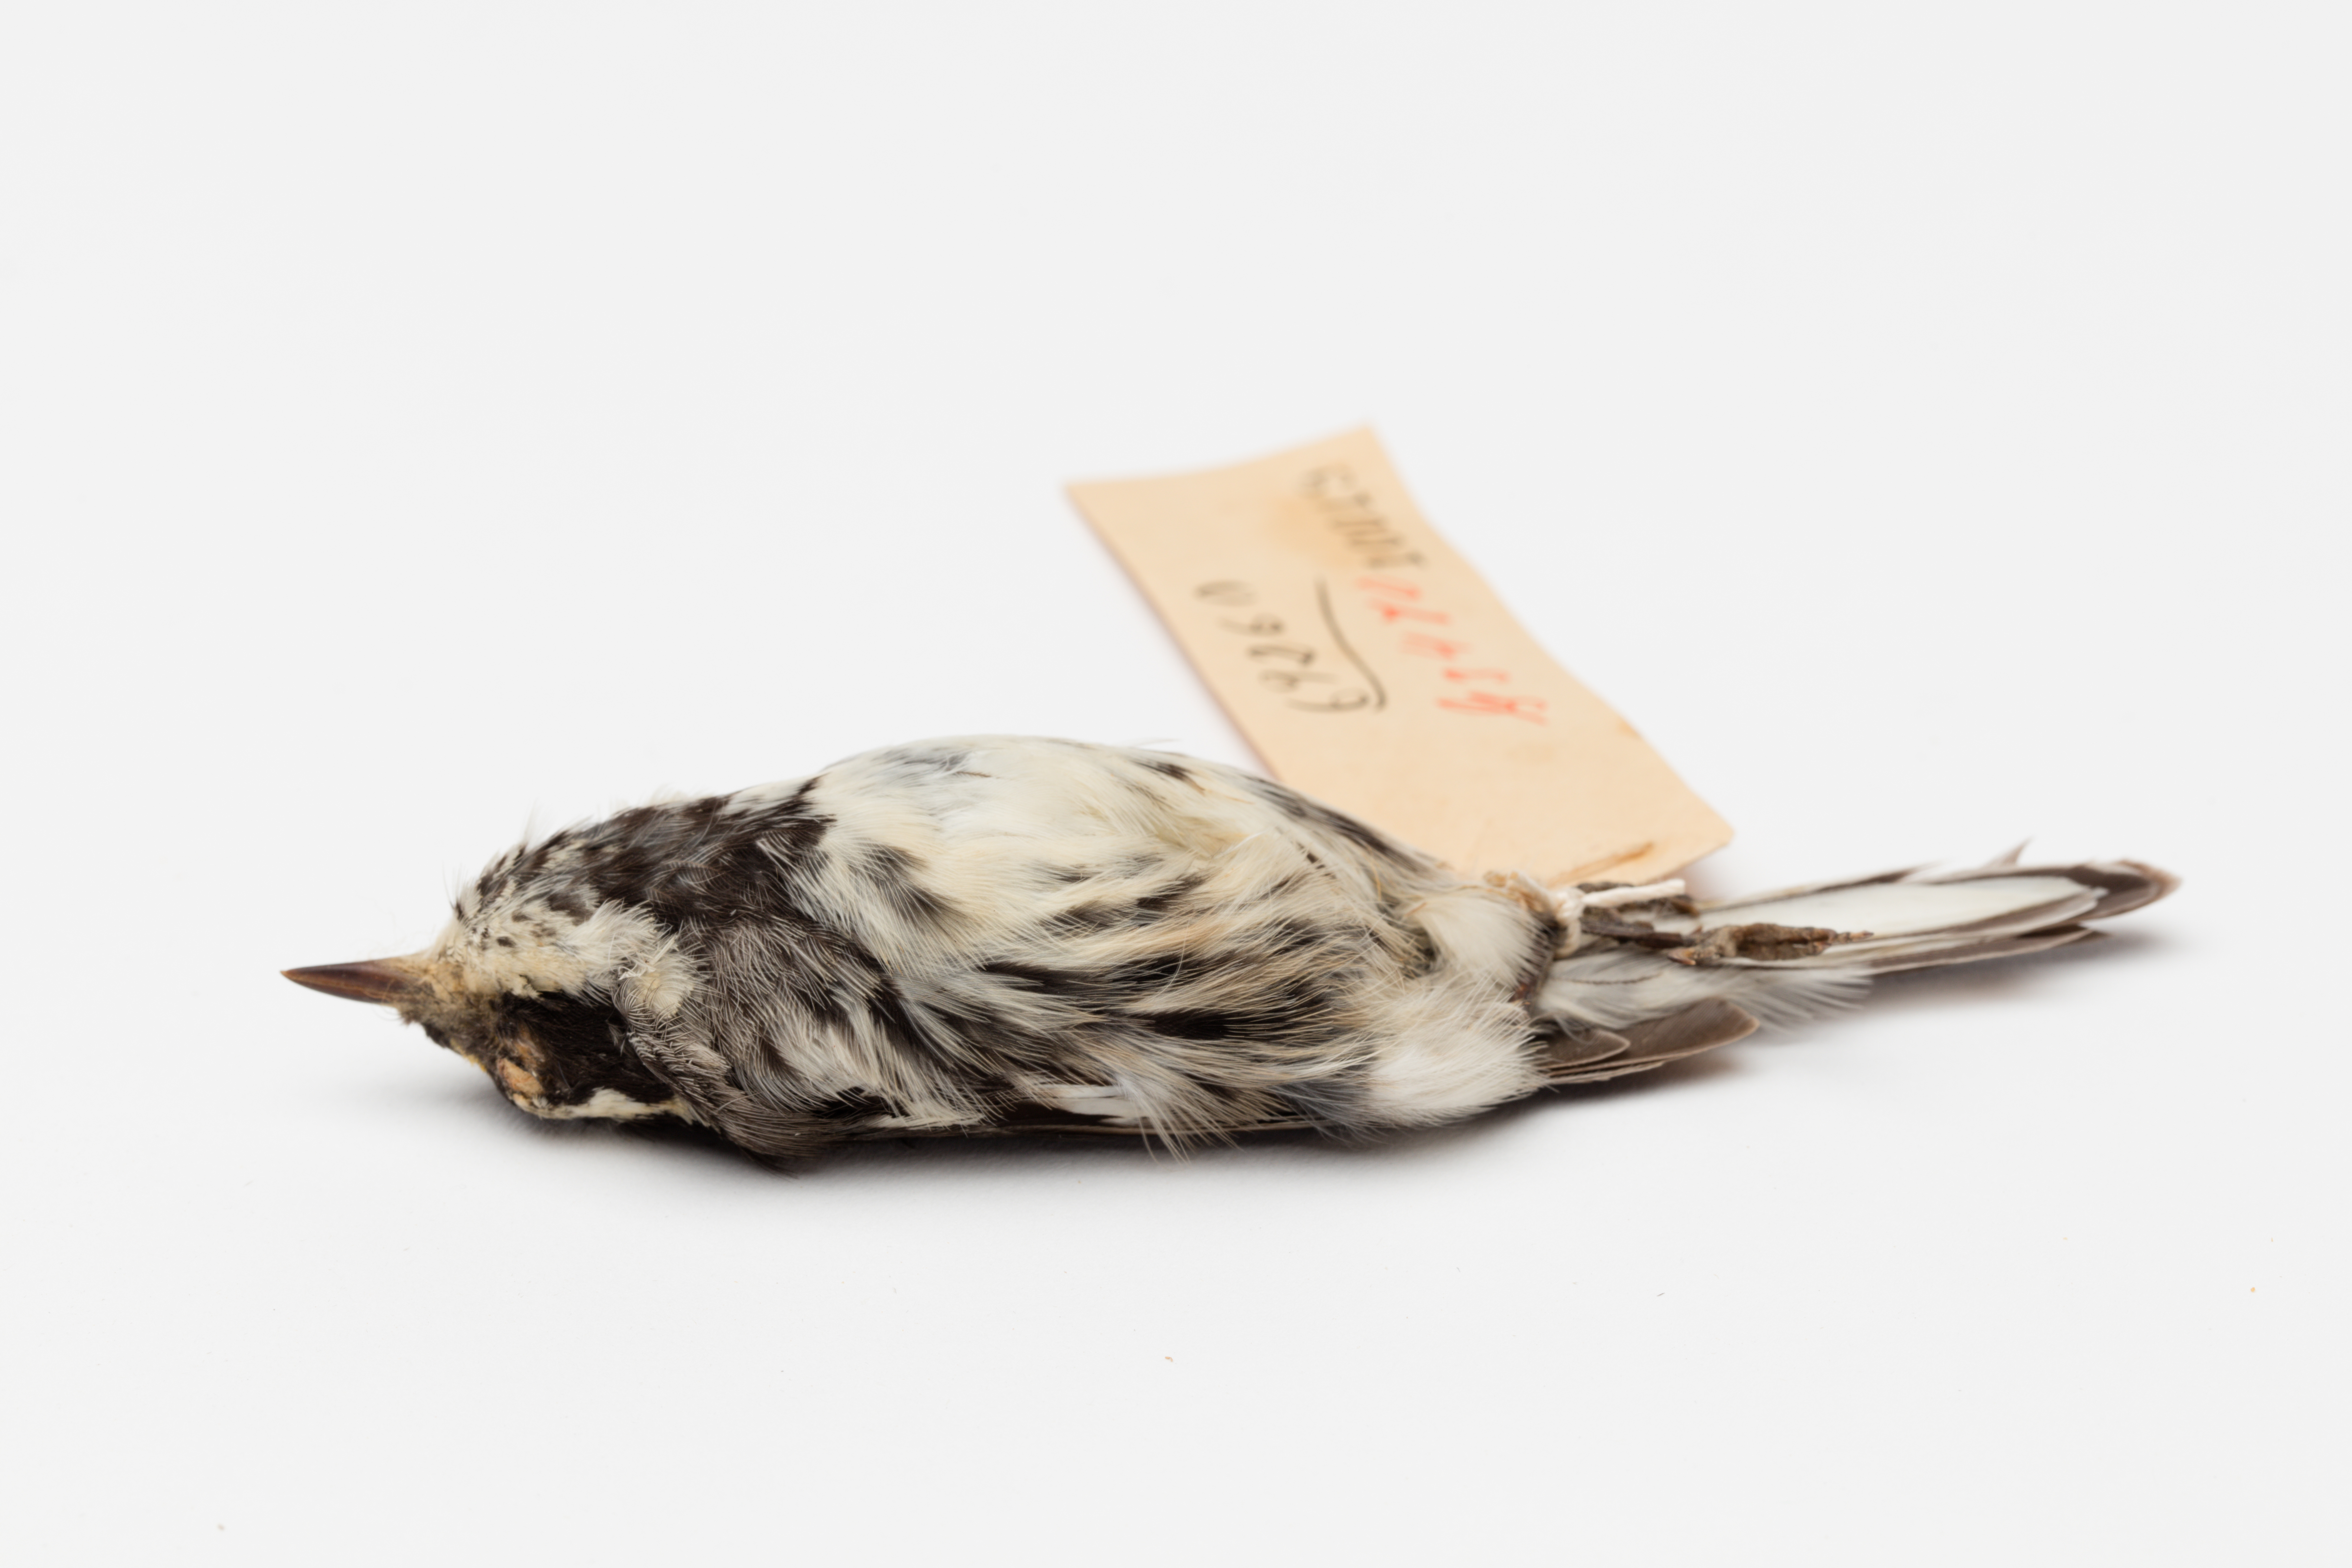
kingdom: Animalia
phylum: Chordata
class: Aves
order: Passeriformes
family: Parulidae
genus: Setophaga
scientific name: Setophaga nigrescens
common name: Black-throated gray warbler
